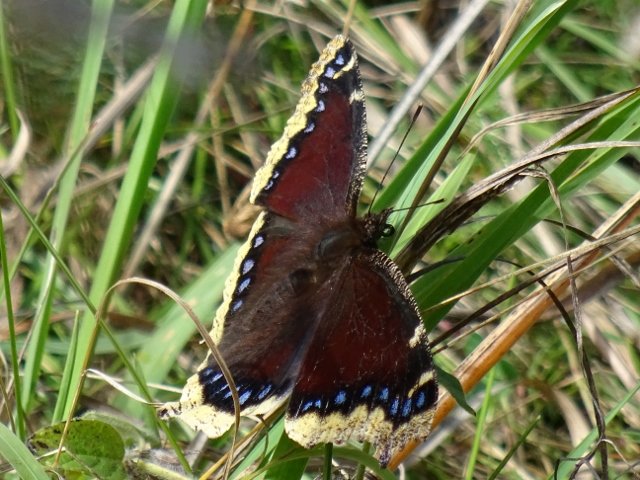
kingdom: Animalia
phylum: Arthropoda
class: Insecta
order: Lepidoptera
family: Nymphalidae
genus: Nymphalis
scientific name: Nymphalis antiopa
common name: Mourning Cloak
